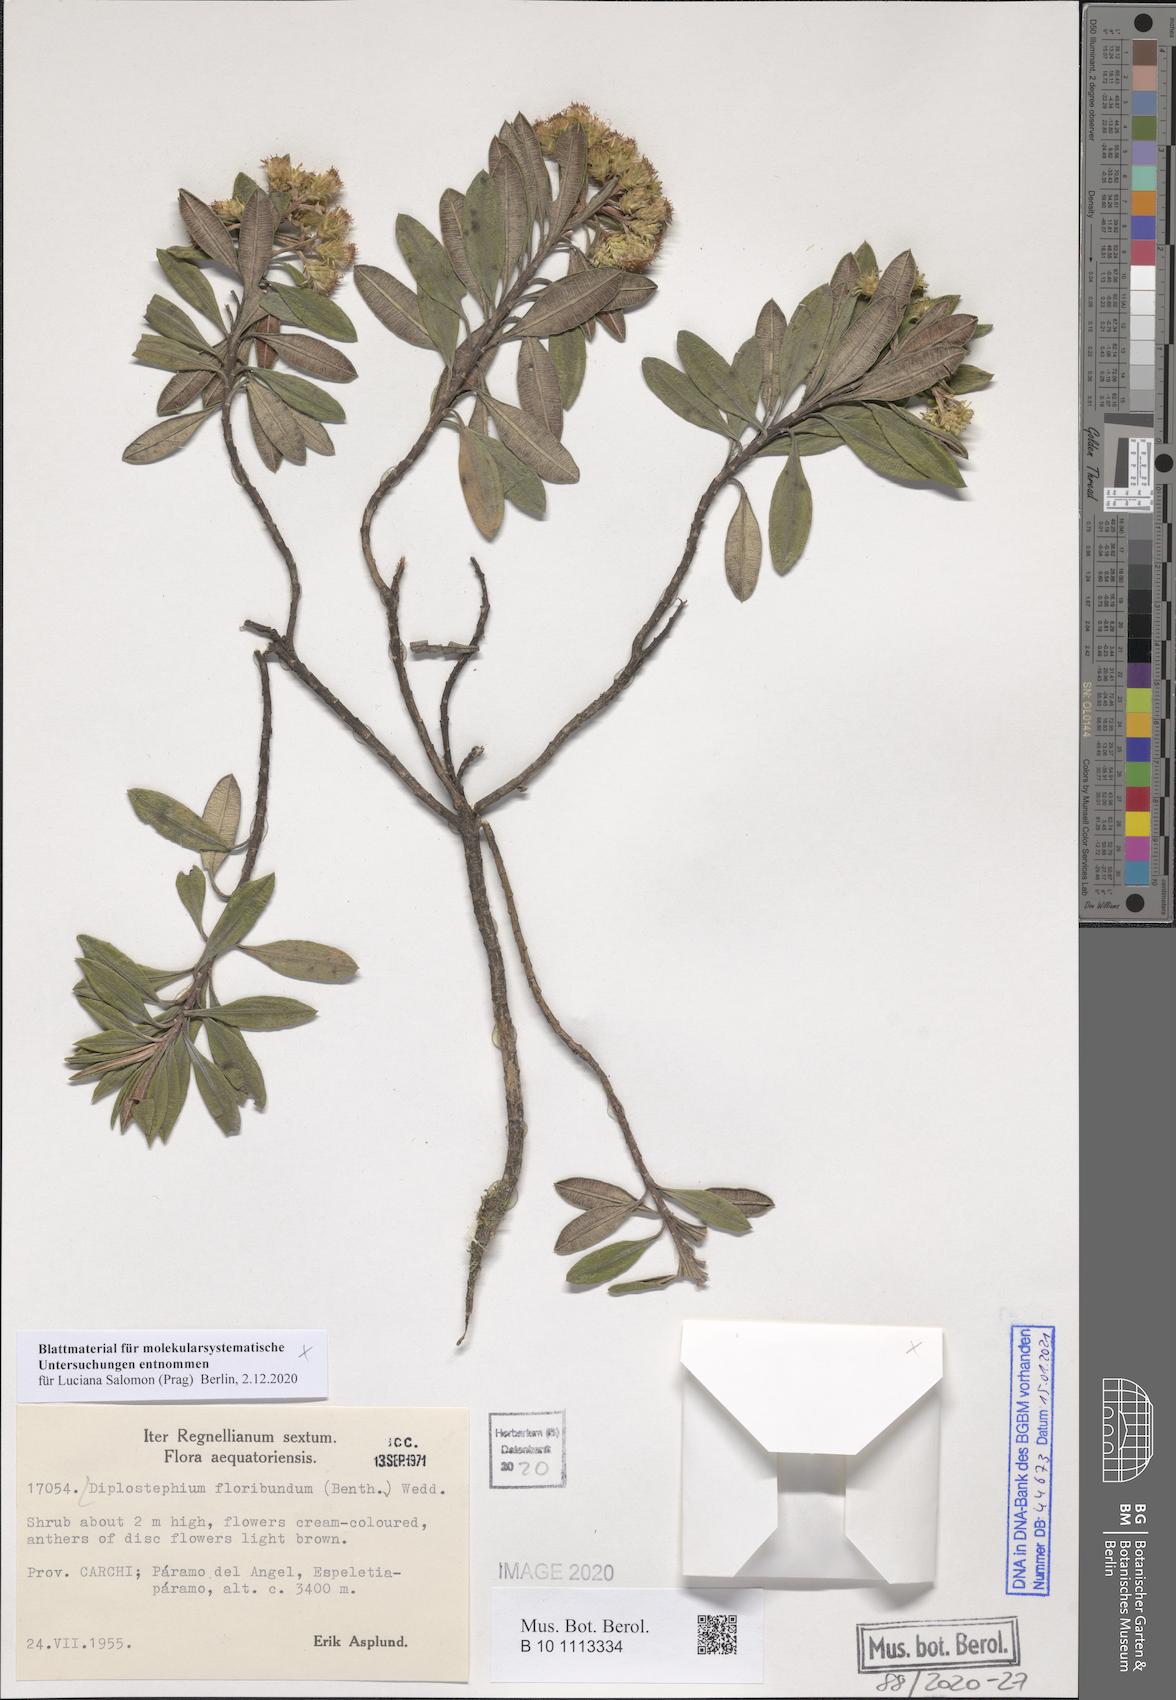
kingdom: Plantae
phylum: Tracheophyta
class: Magnoliopsida
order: Asterales
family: Asteraceae
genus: Linochilus
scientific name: Linochilus floribundus
